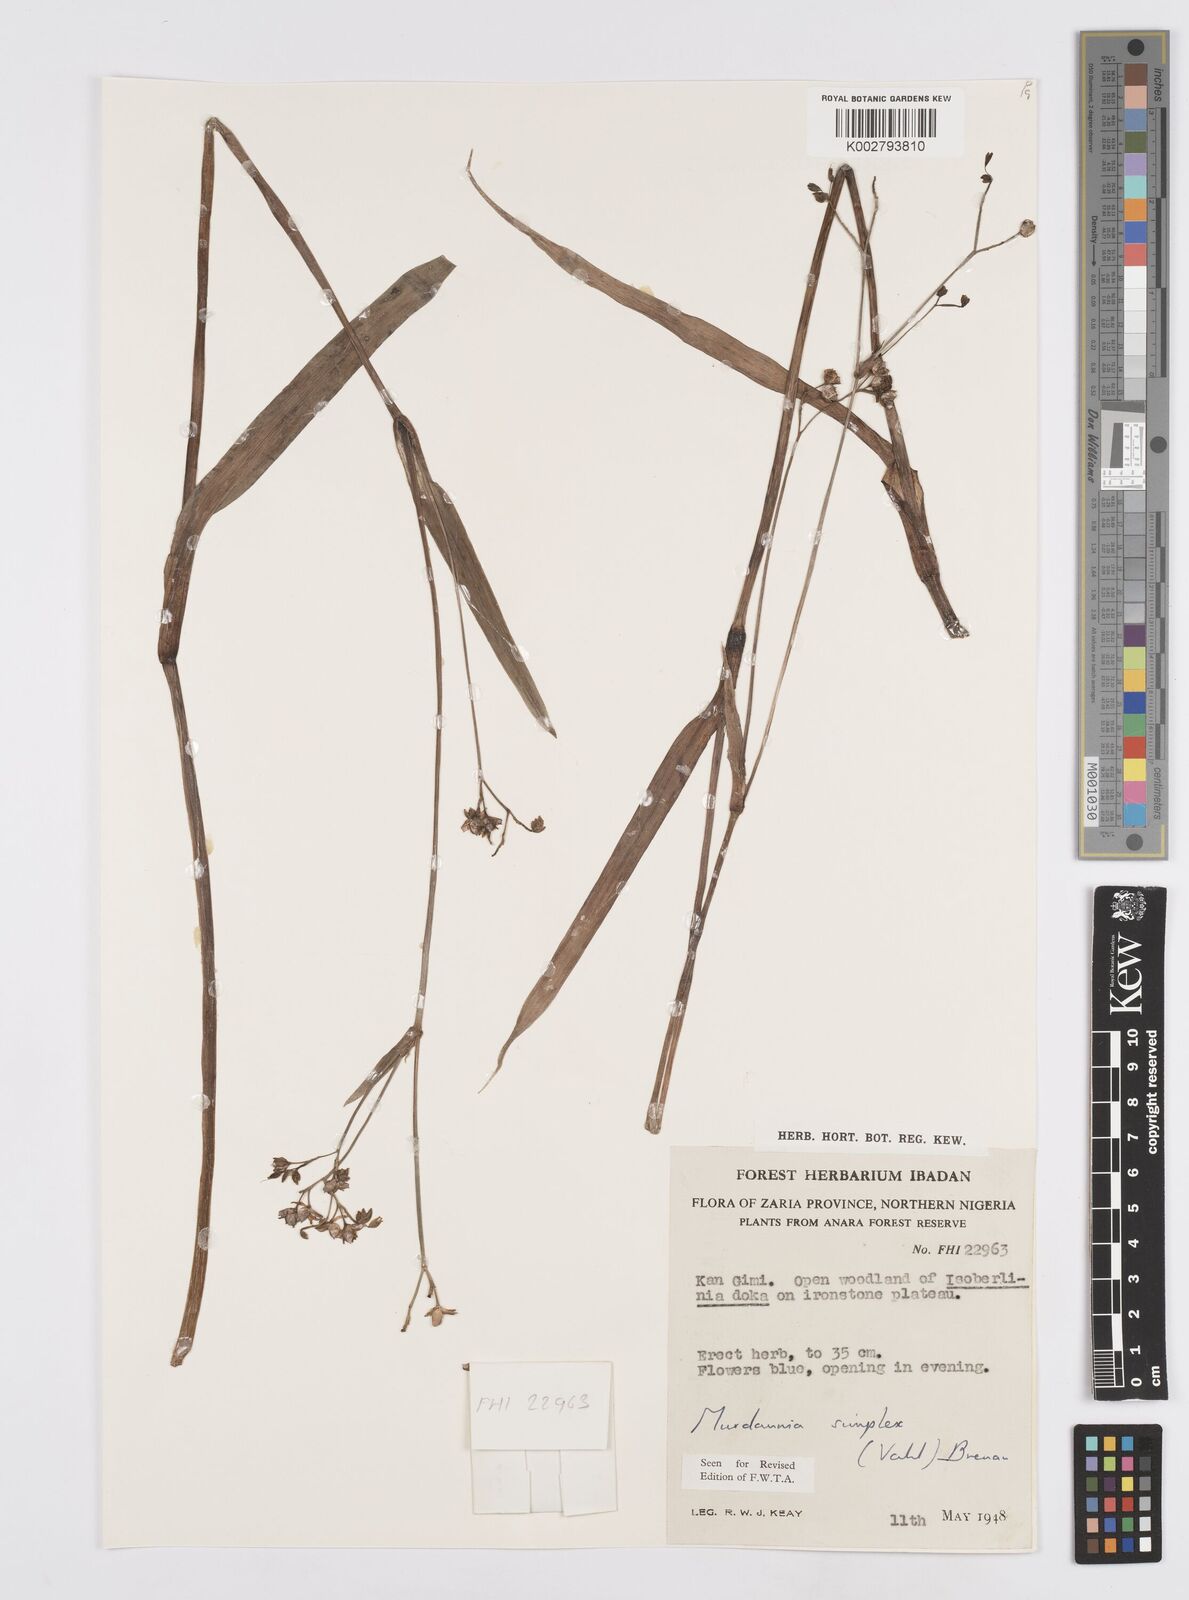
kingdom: Plantae
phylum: Tracheophyta
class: Liliopsida
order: Commelinales
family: Commelinaceae
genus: Murdannia
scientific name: Murdannia simplex
